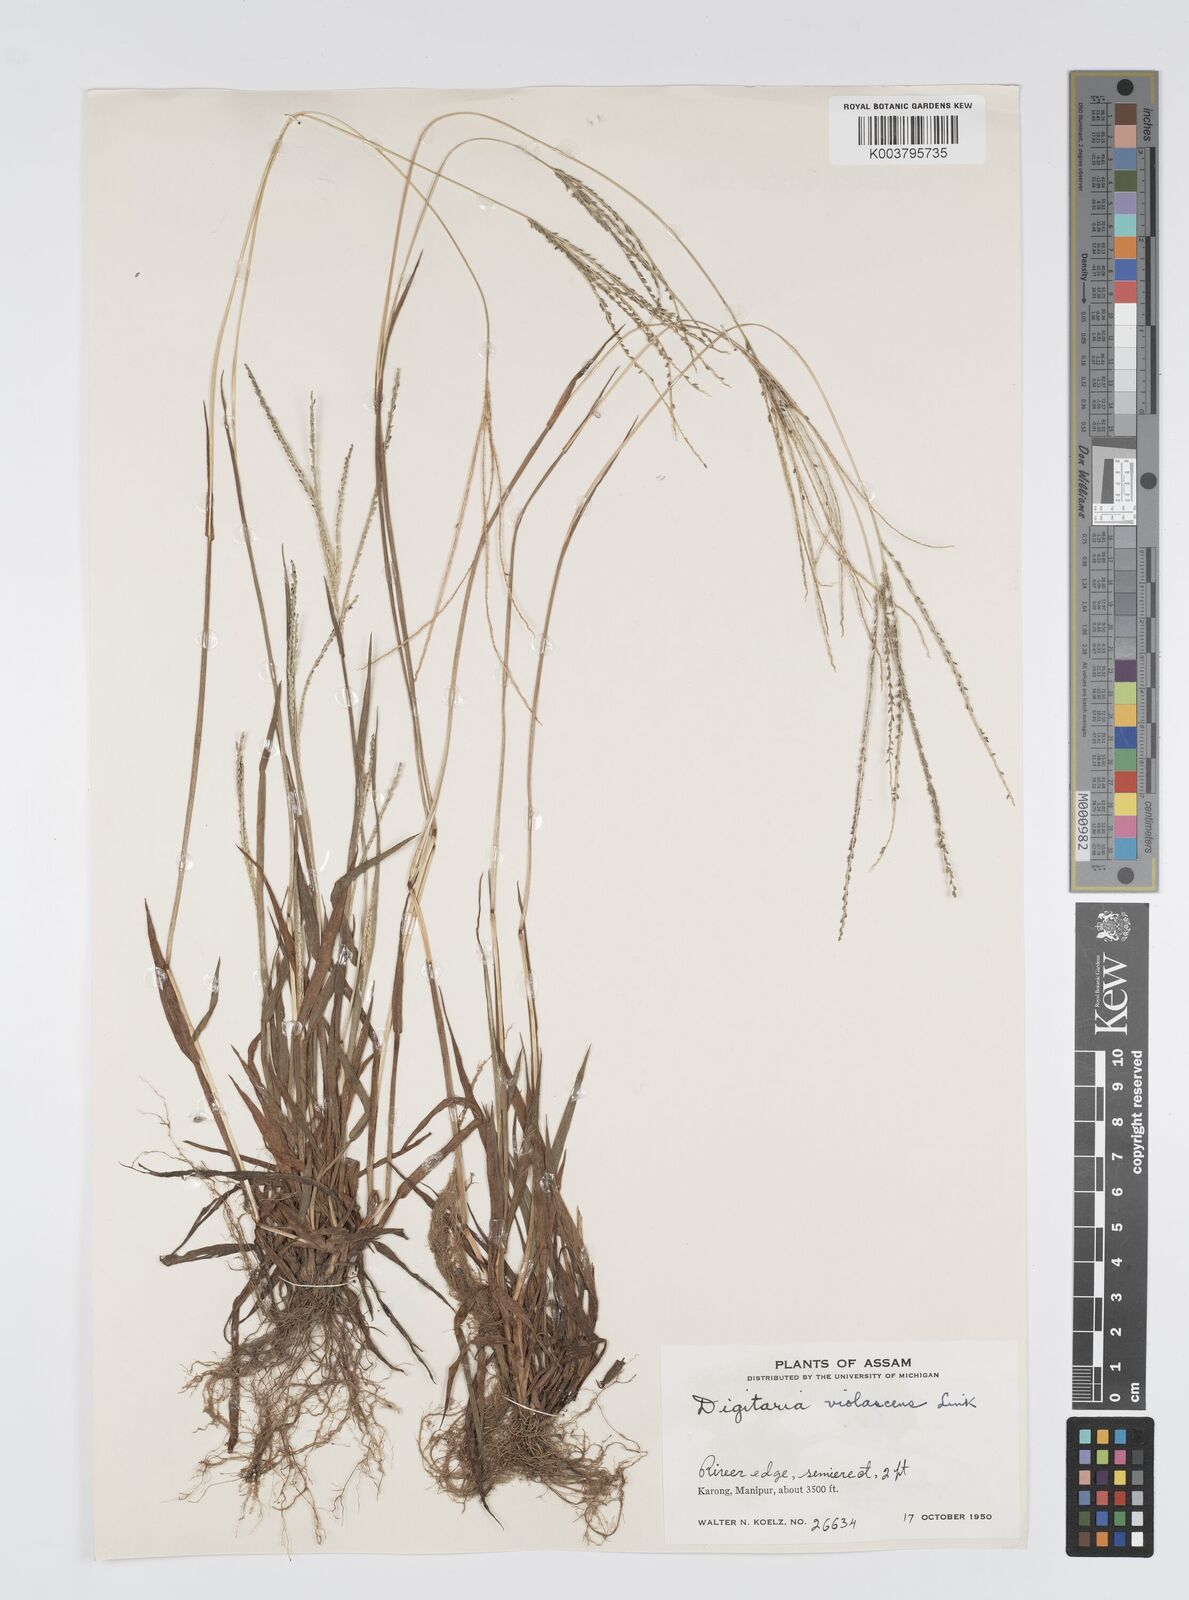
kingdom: Plantae
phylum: Tracheophyta
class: Liliopsida
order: Poales
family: Poaceae
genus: Digitaria
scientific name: Digitaria violascens
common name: Violet crabgrass
